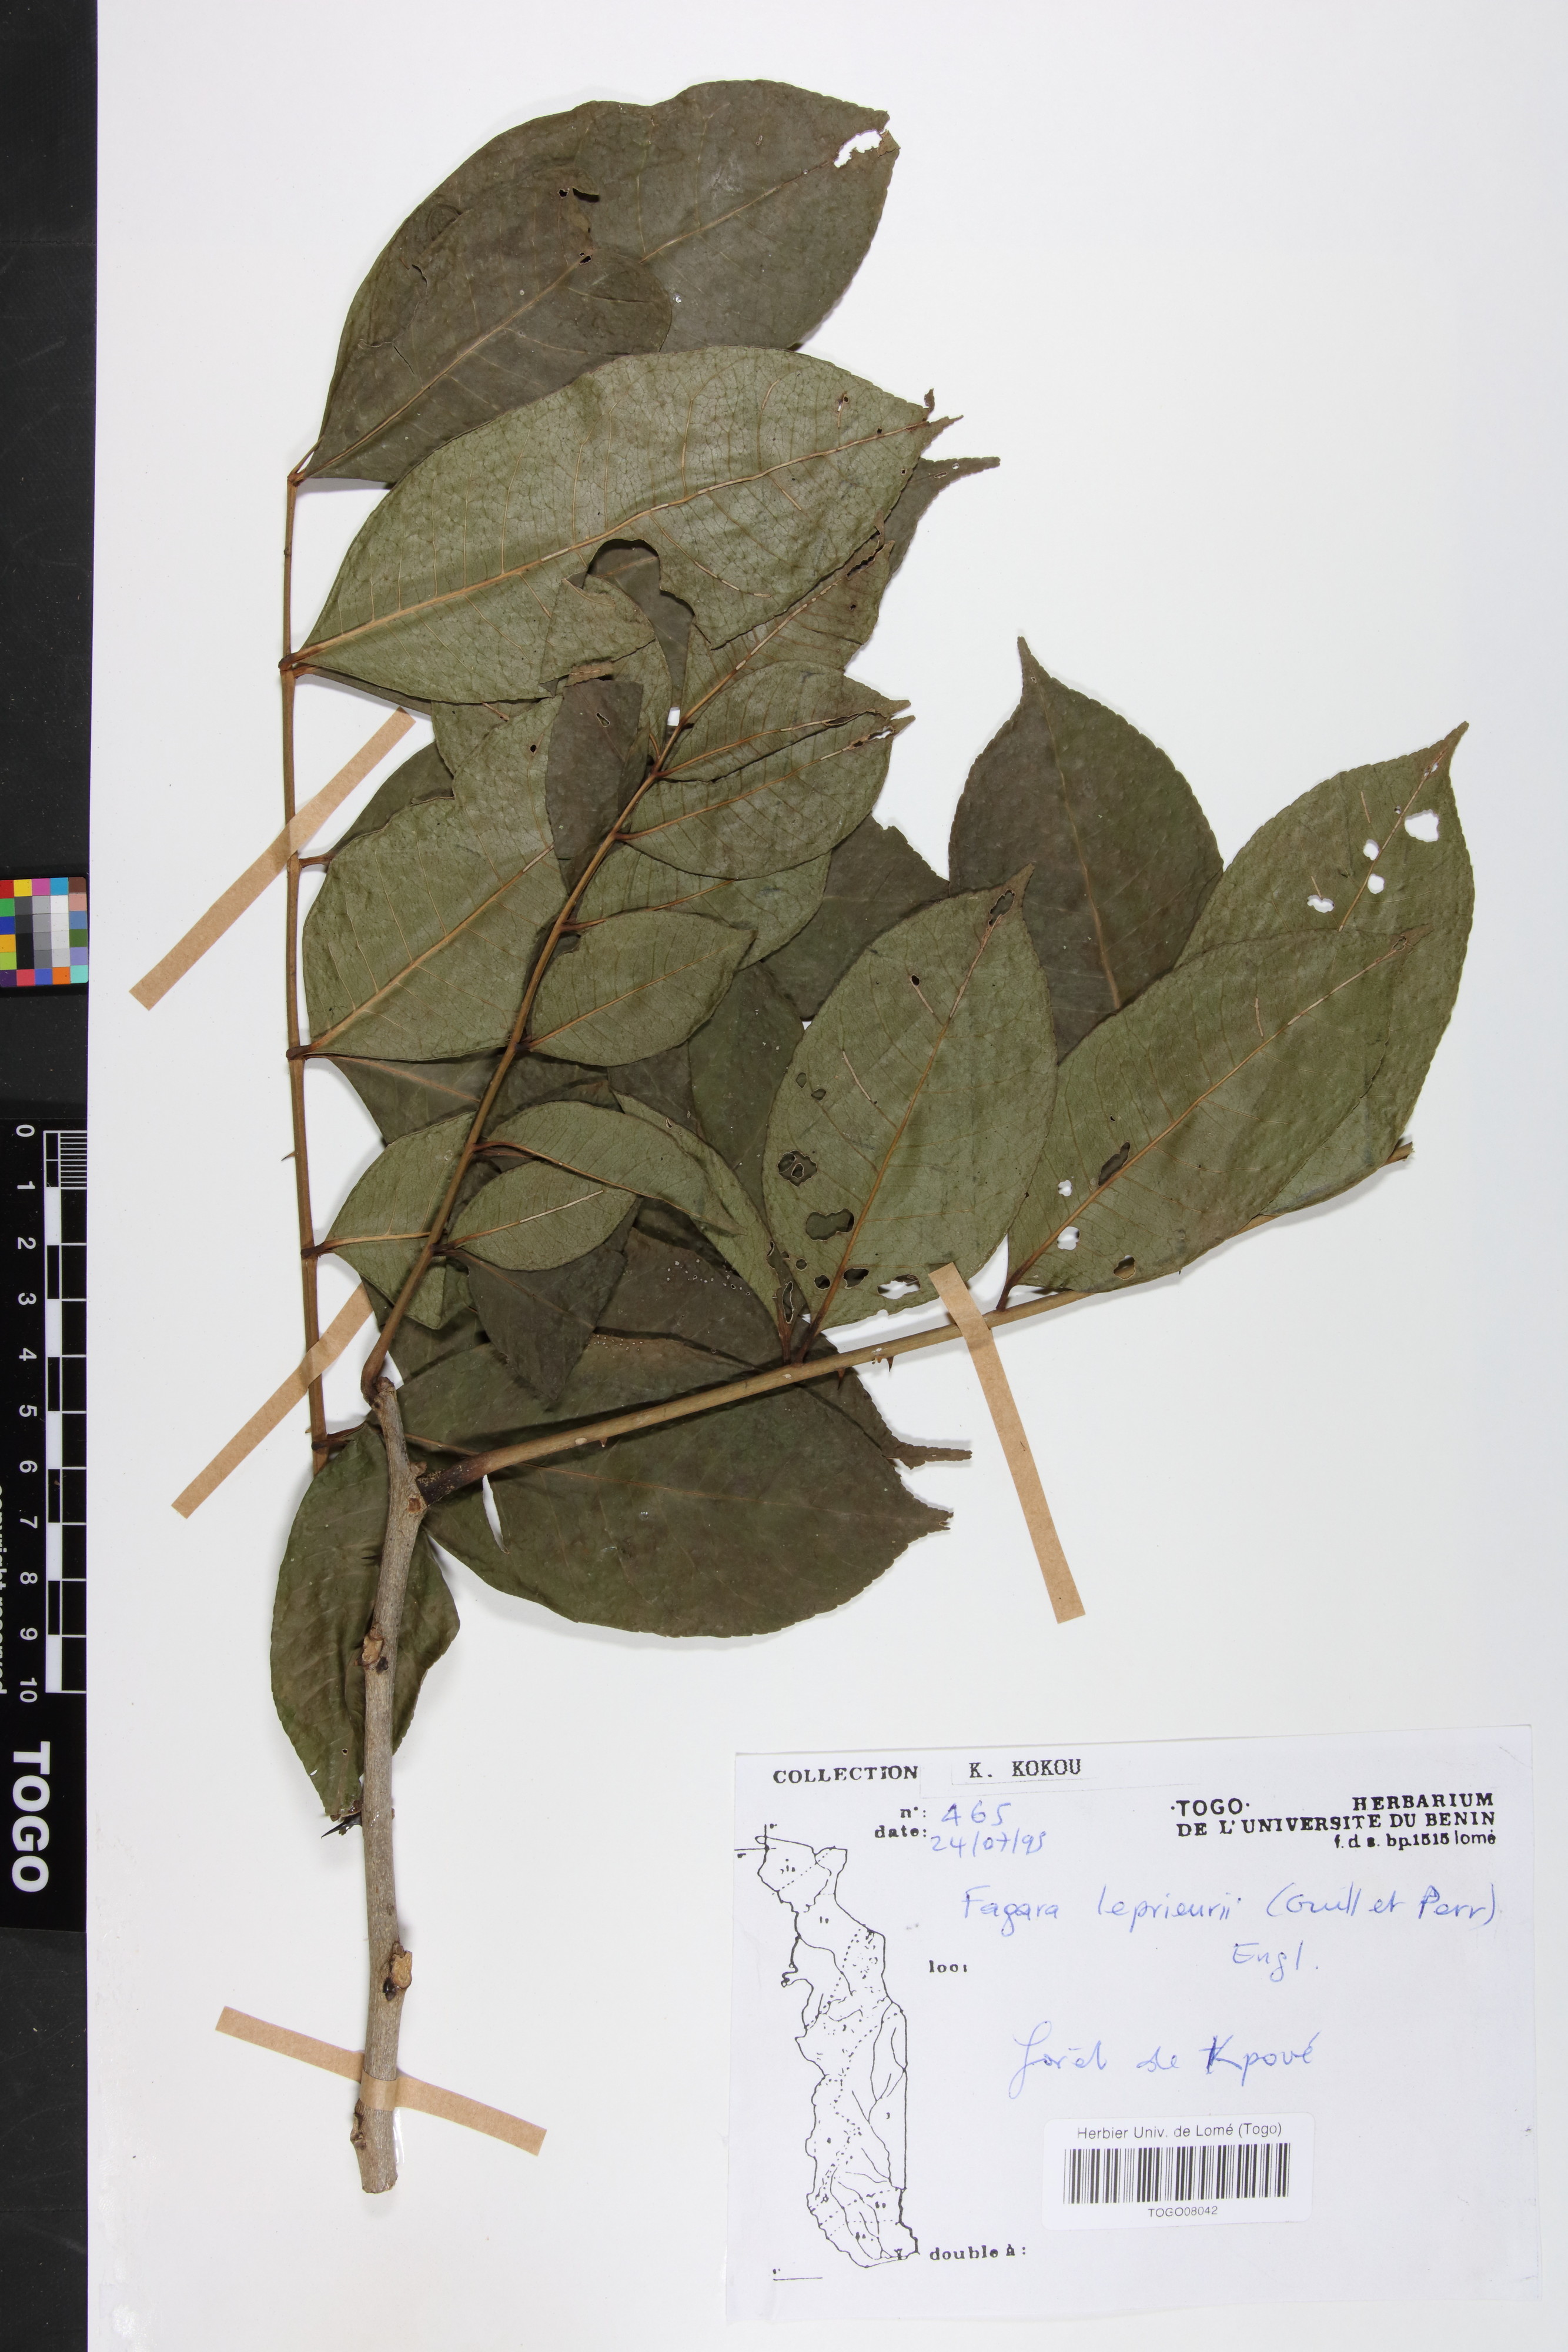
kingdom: Plantae
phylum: Tracheophyta
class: Magnoliopsida
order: Sapindales
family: Rutaceae
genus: Zanthoxylum
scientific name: Zanthoxylum leprieurii
